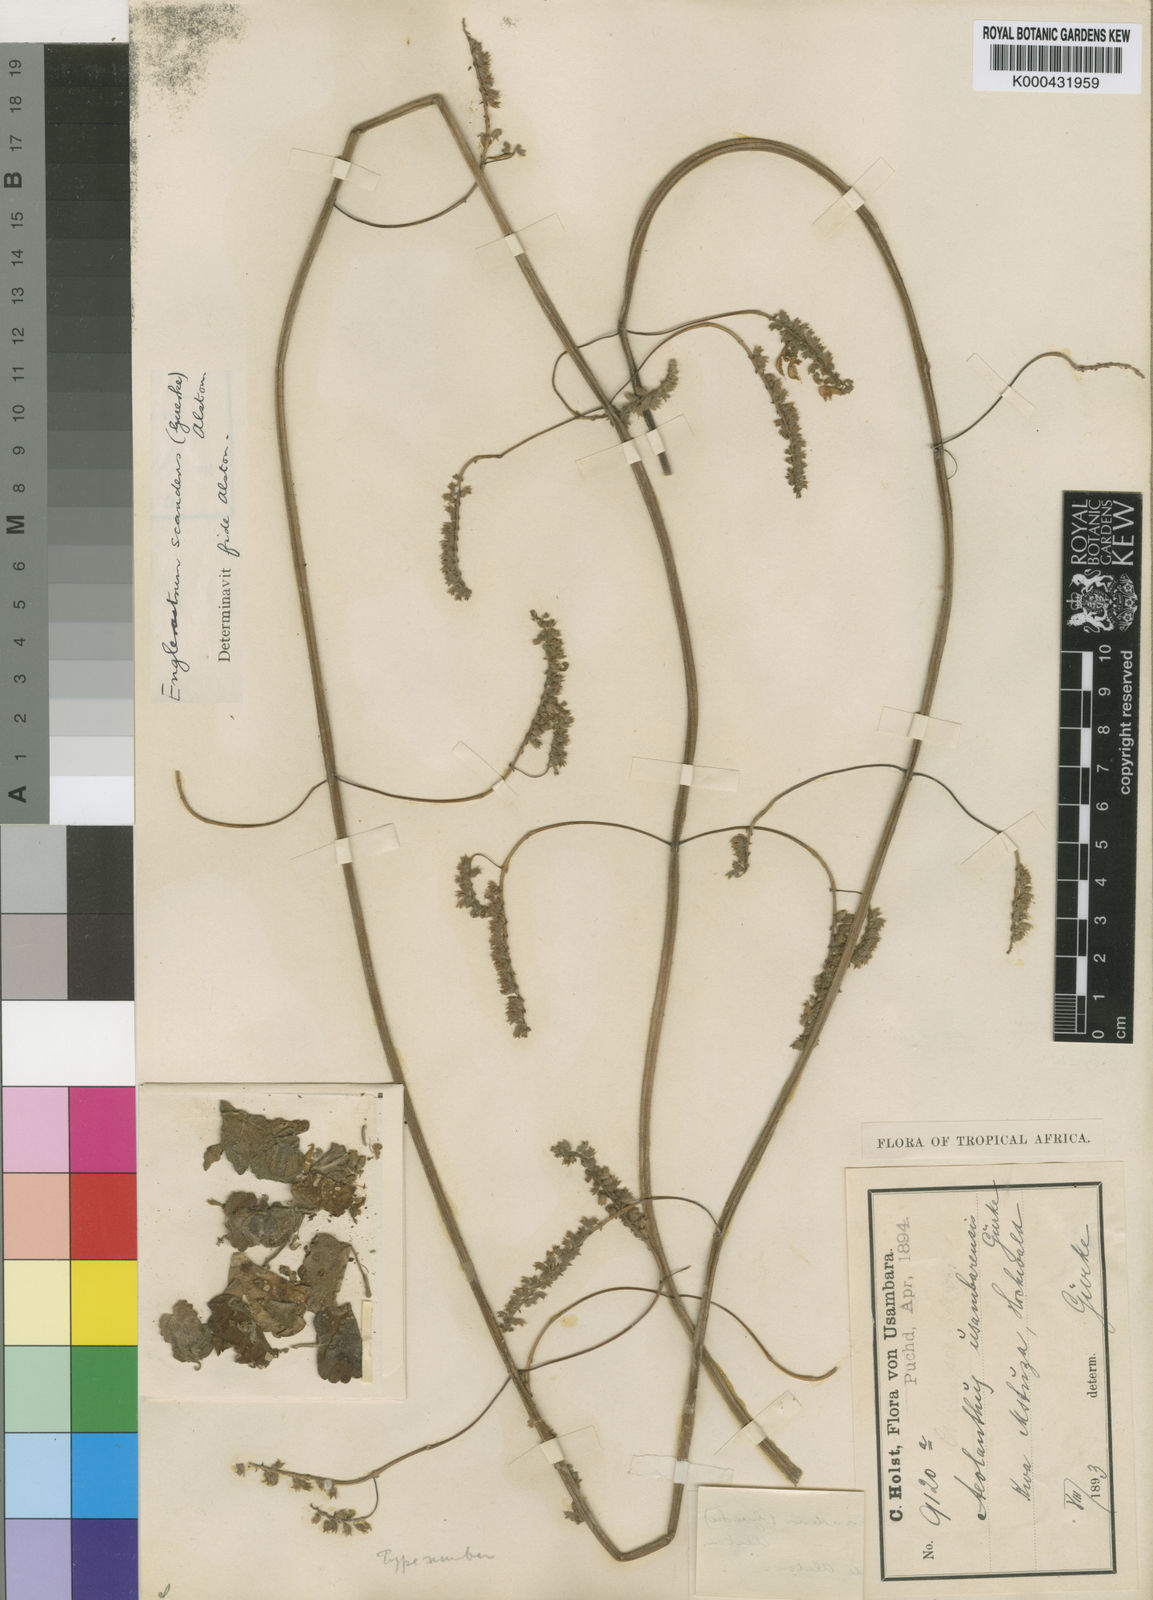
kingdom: Plantae
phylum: Tracheophyta
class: Magnoliopsida
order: Lamiales
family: Lamiaceae
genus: Plectranthus
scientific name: Plectranthus
